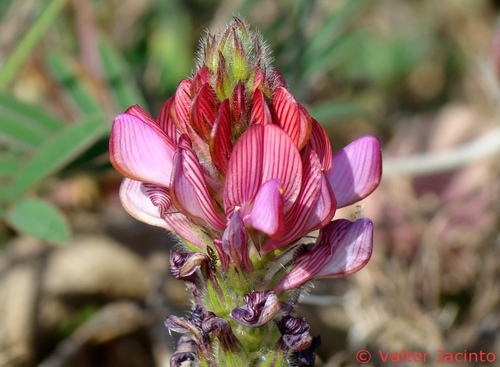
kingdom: Plantae
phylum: Tracheophyta
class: Magnoliopsida
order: Fabales
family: Fabaceae
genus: Onobrychis
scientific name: Onobrychis humilis
